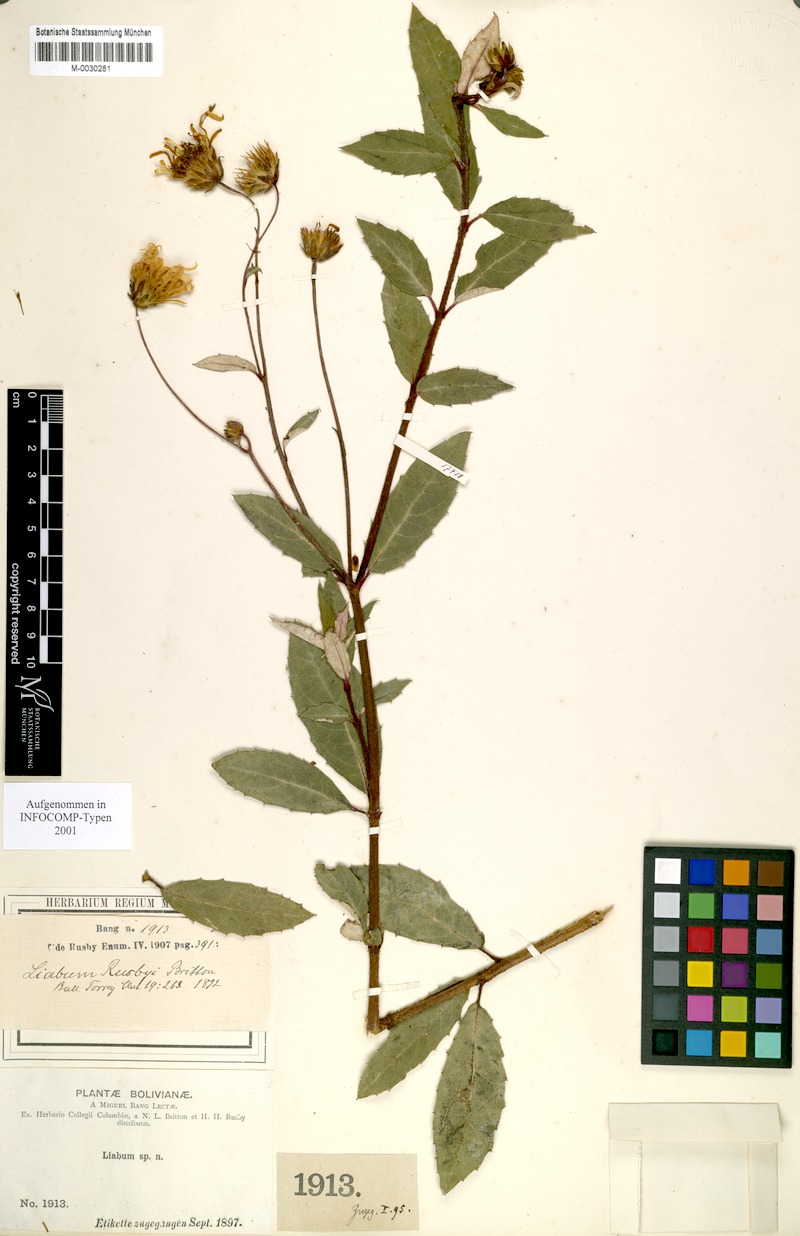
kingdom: Plantae
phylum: Tracheophyta
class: Magnoliopsida
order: Asterales
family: Asteraceae
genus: Munnozia
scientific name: Munnozia rusbyi
